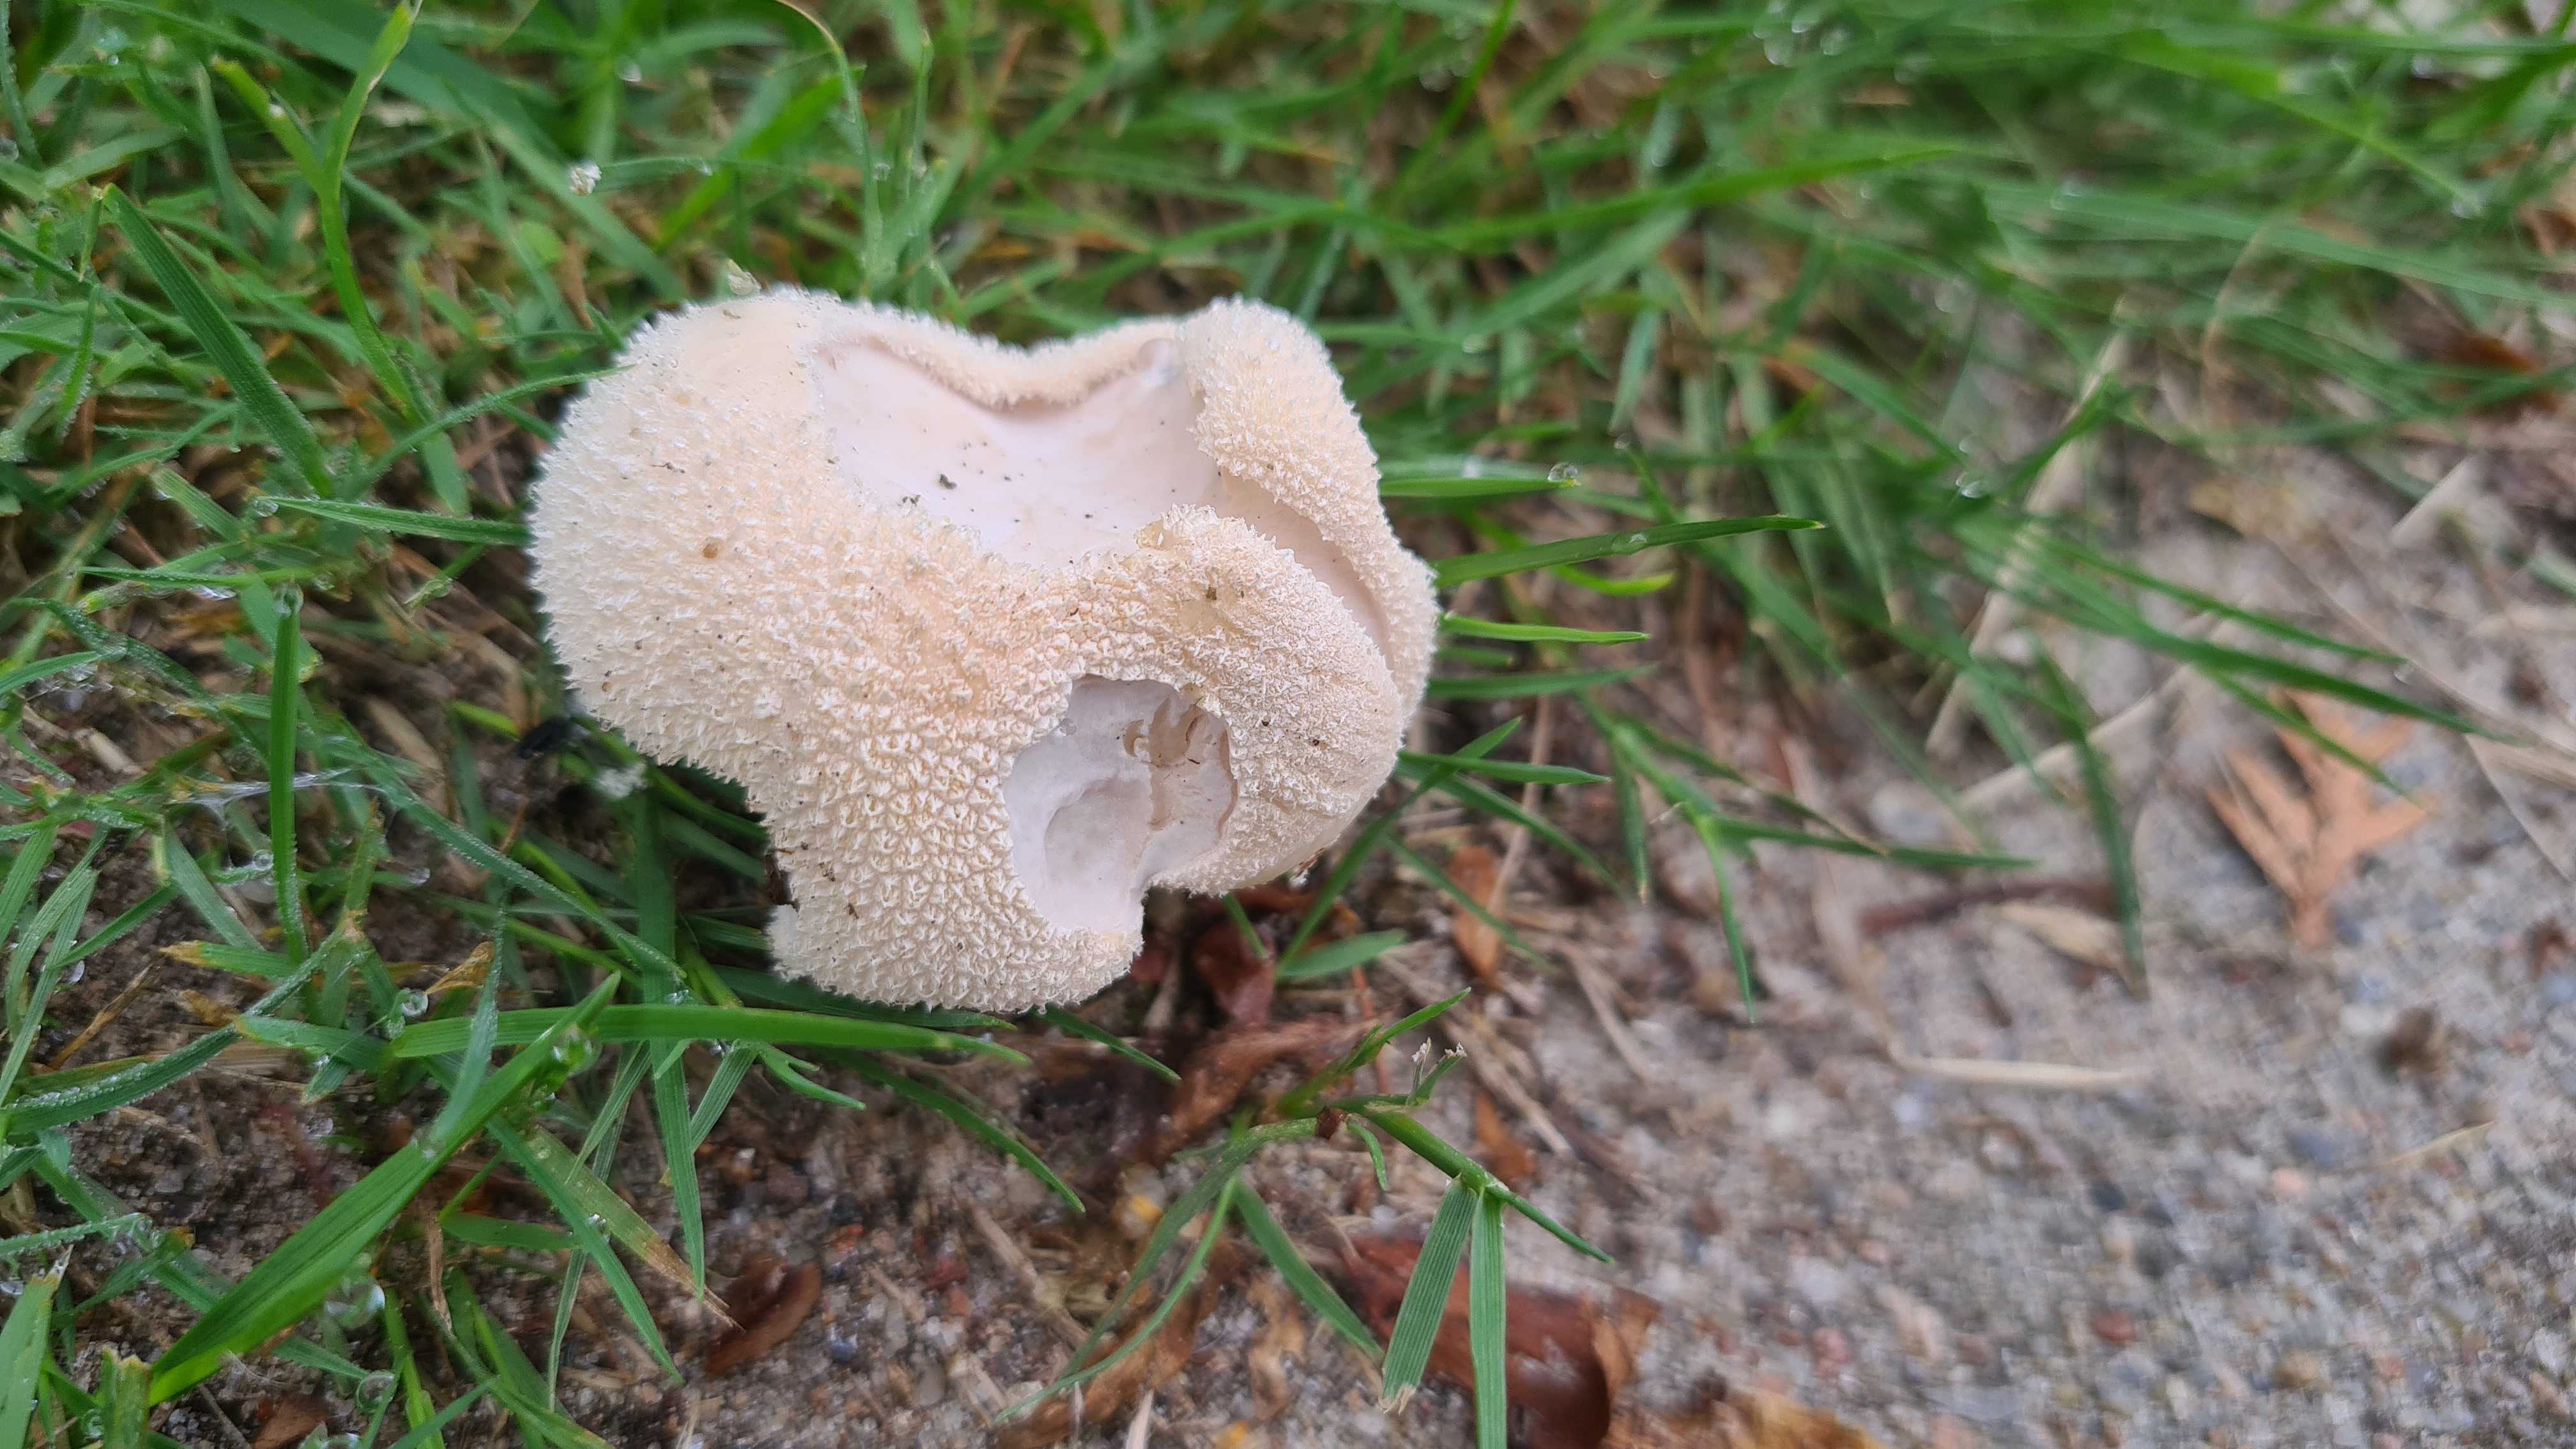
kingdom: Fungi
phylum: Basidiomycota
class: Agaricomycetes
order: Agaricales
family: Lycoperdaceae
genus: Lycoperdon
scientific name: Lycoperdon pratense
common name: flad støvbold
